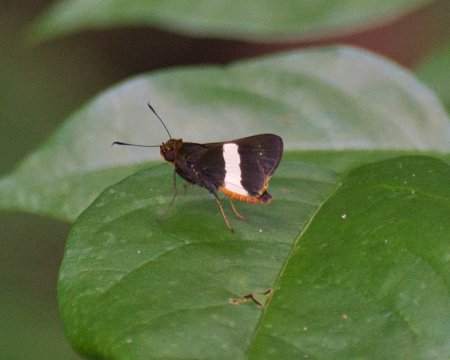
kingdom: Animalia
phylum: Arthropoda
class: Insecta
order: Lepidoptera
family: Hesperiidae
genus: Metron
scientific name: Metron chrysogastra
